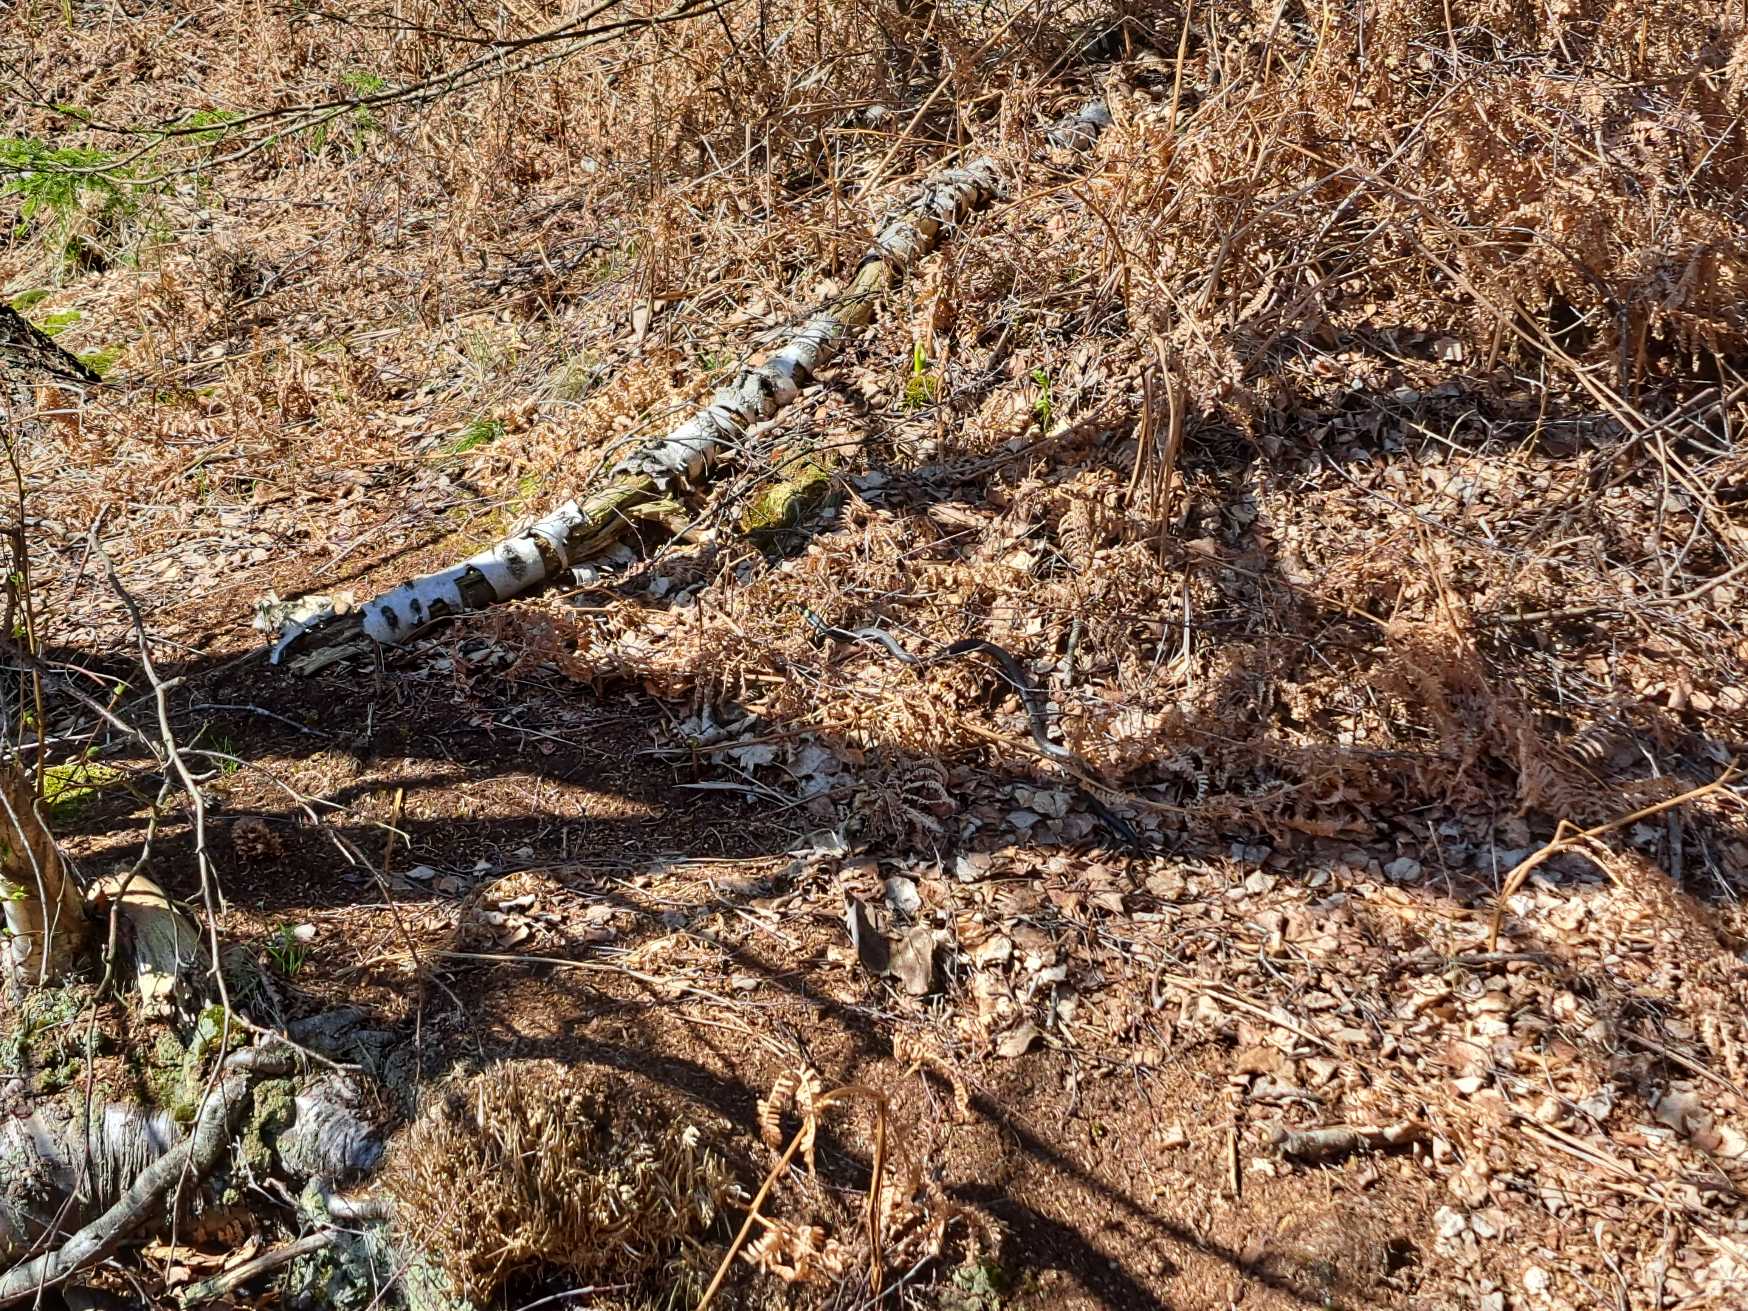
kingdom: Animalia
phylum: Chordata
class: Squamata
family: Colubridae
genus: Natrix
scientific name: Natrix natrix
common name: Snog
